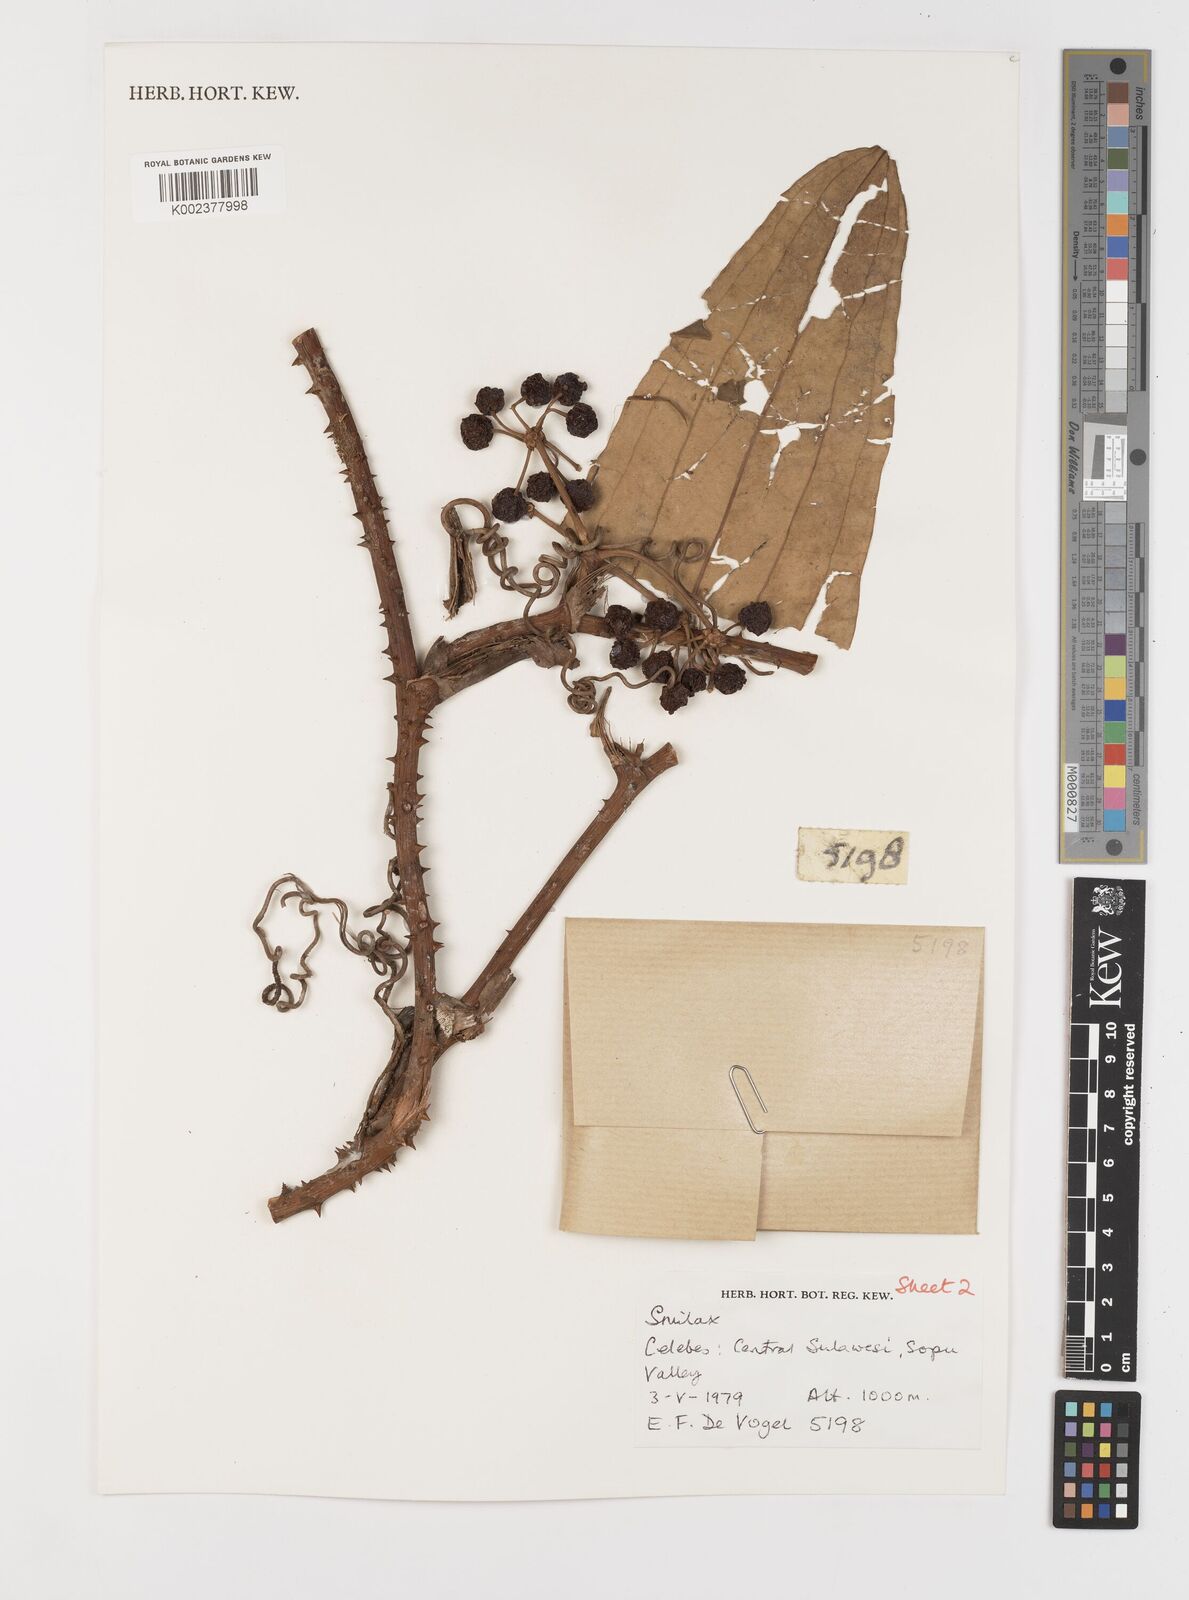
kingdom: Plantae
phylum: Tracheophyta
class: Liliopsida
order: Liliales
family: Smilacaceae
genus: Smilax
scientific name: Smilax
